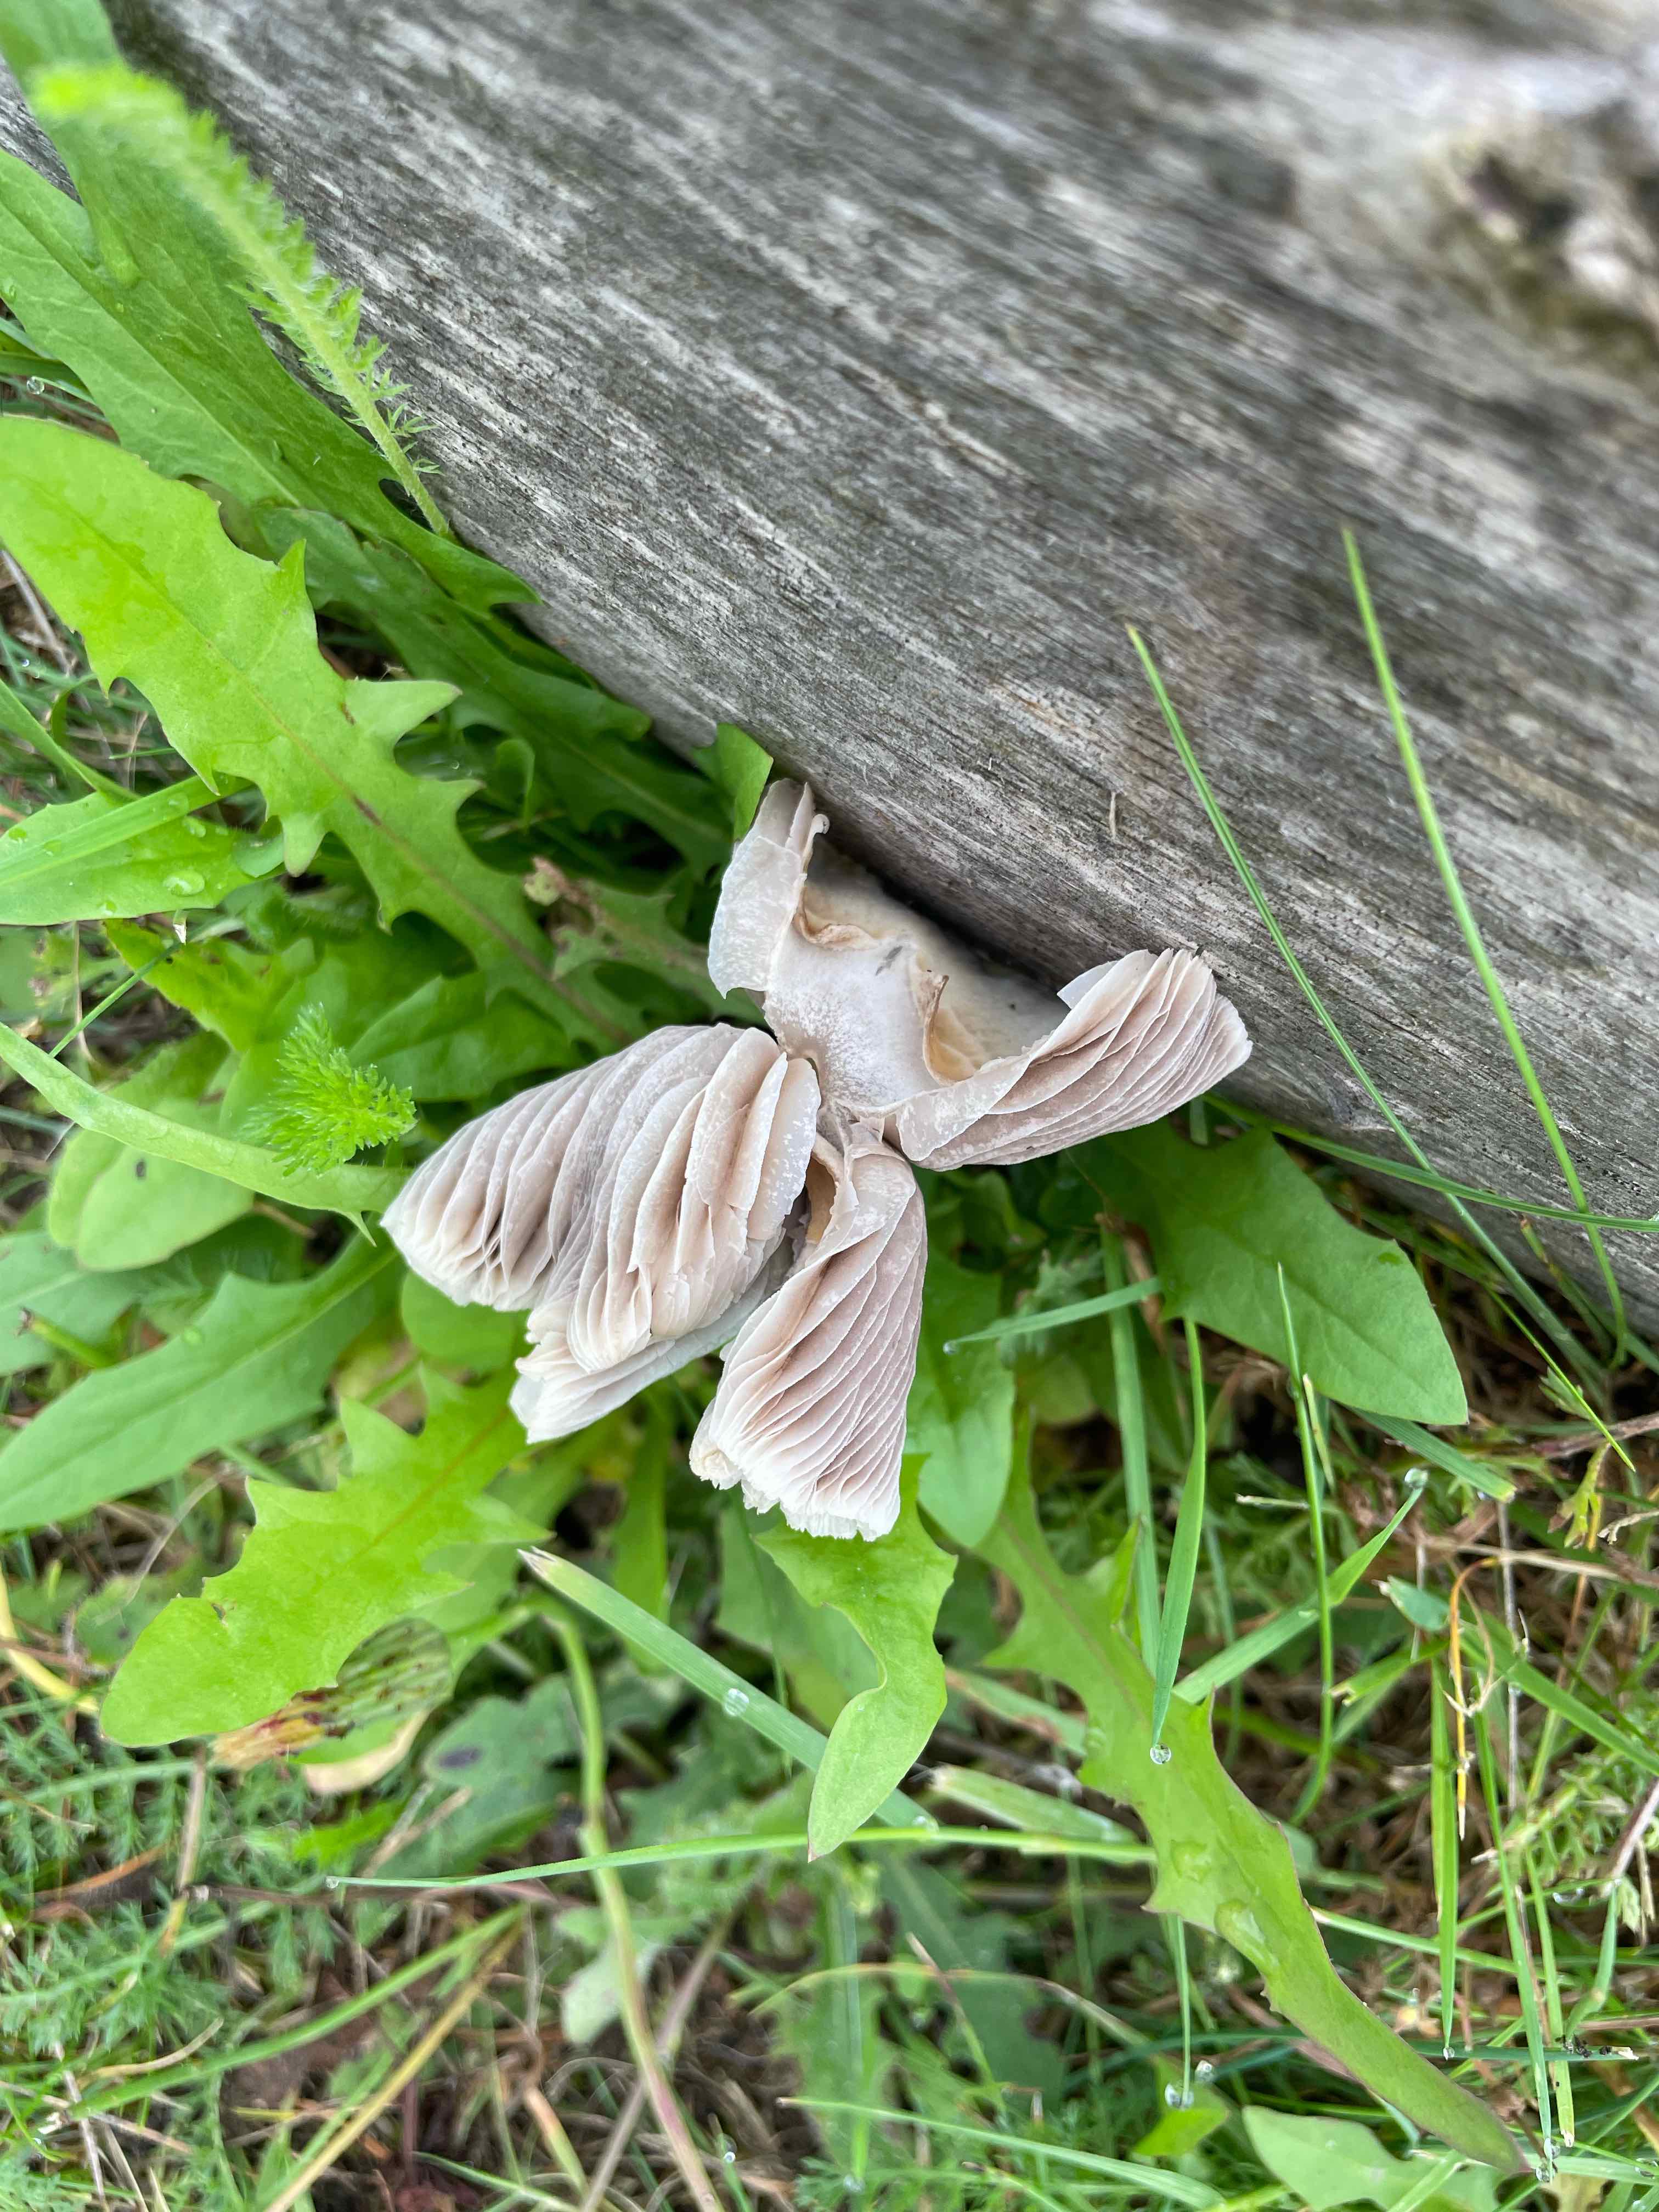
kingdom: Fungi
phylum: Basidiomycota
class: Agaricomycetes
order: Agaricales
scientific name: Agaricales
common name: champignonordenen
